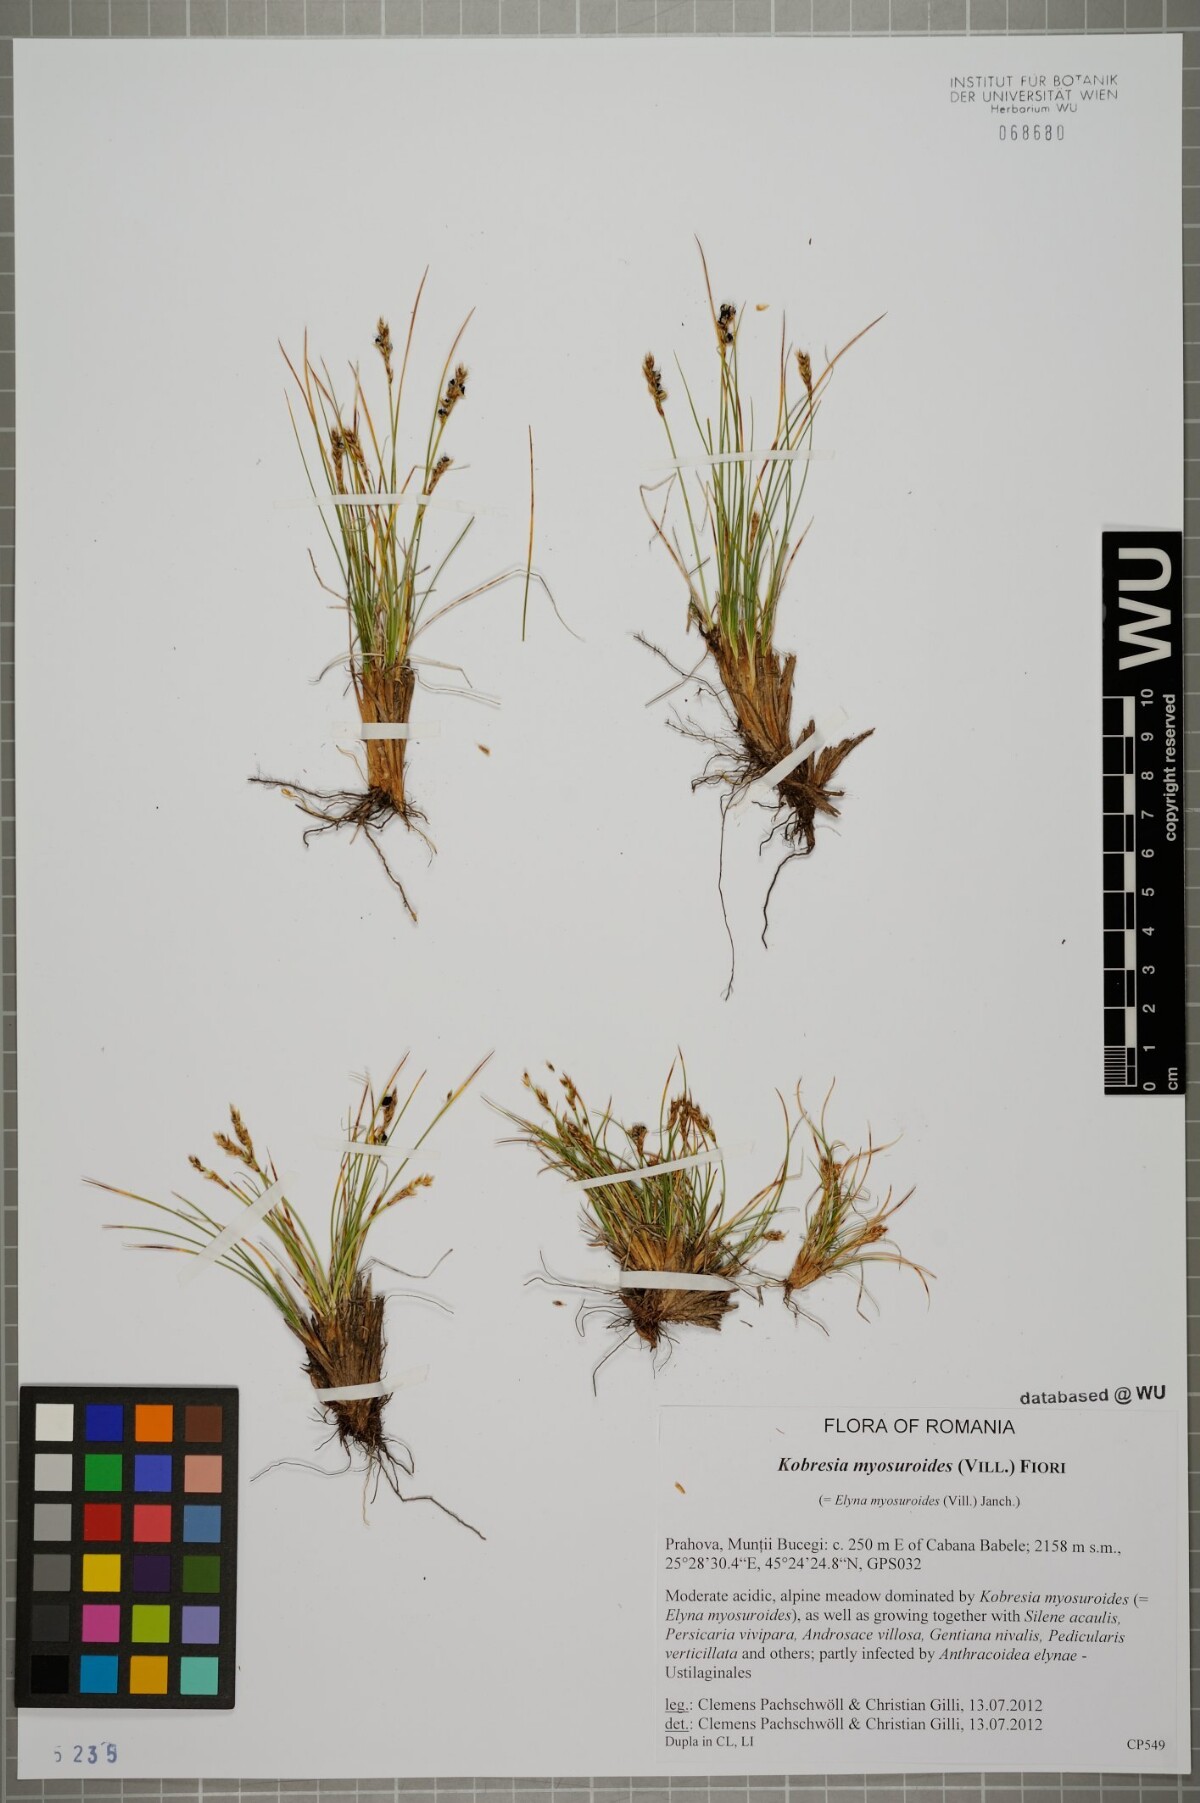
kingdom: Plantae
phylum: Tracheophyta
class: Liliopsida
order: Poales
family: Cyperaceae
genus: Carex
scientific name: Carex myosuroides
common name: Bellard's bog sedge
